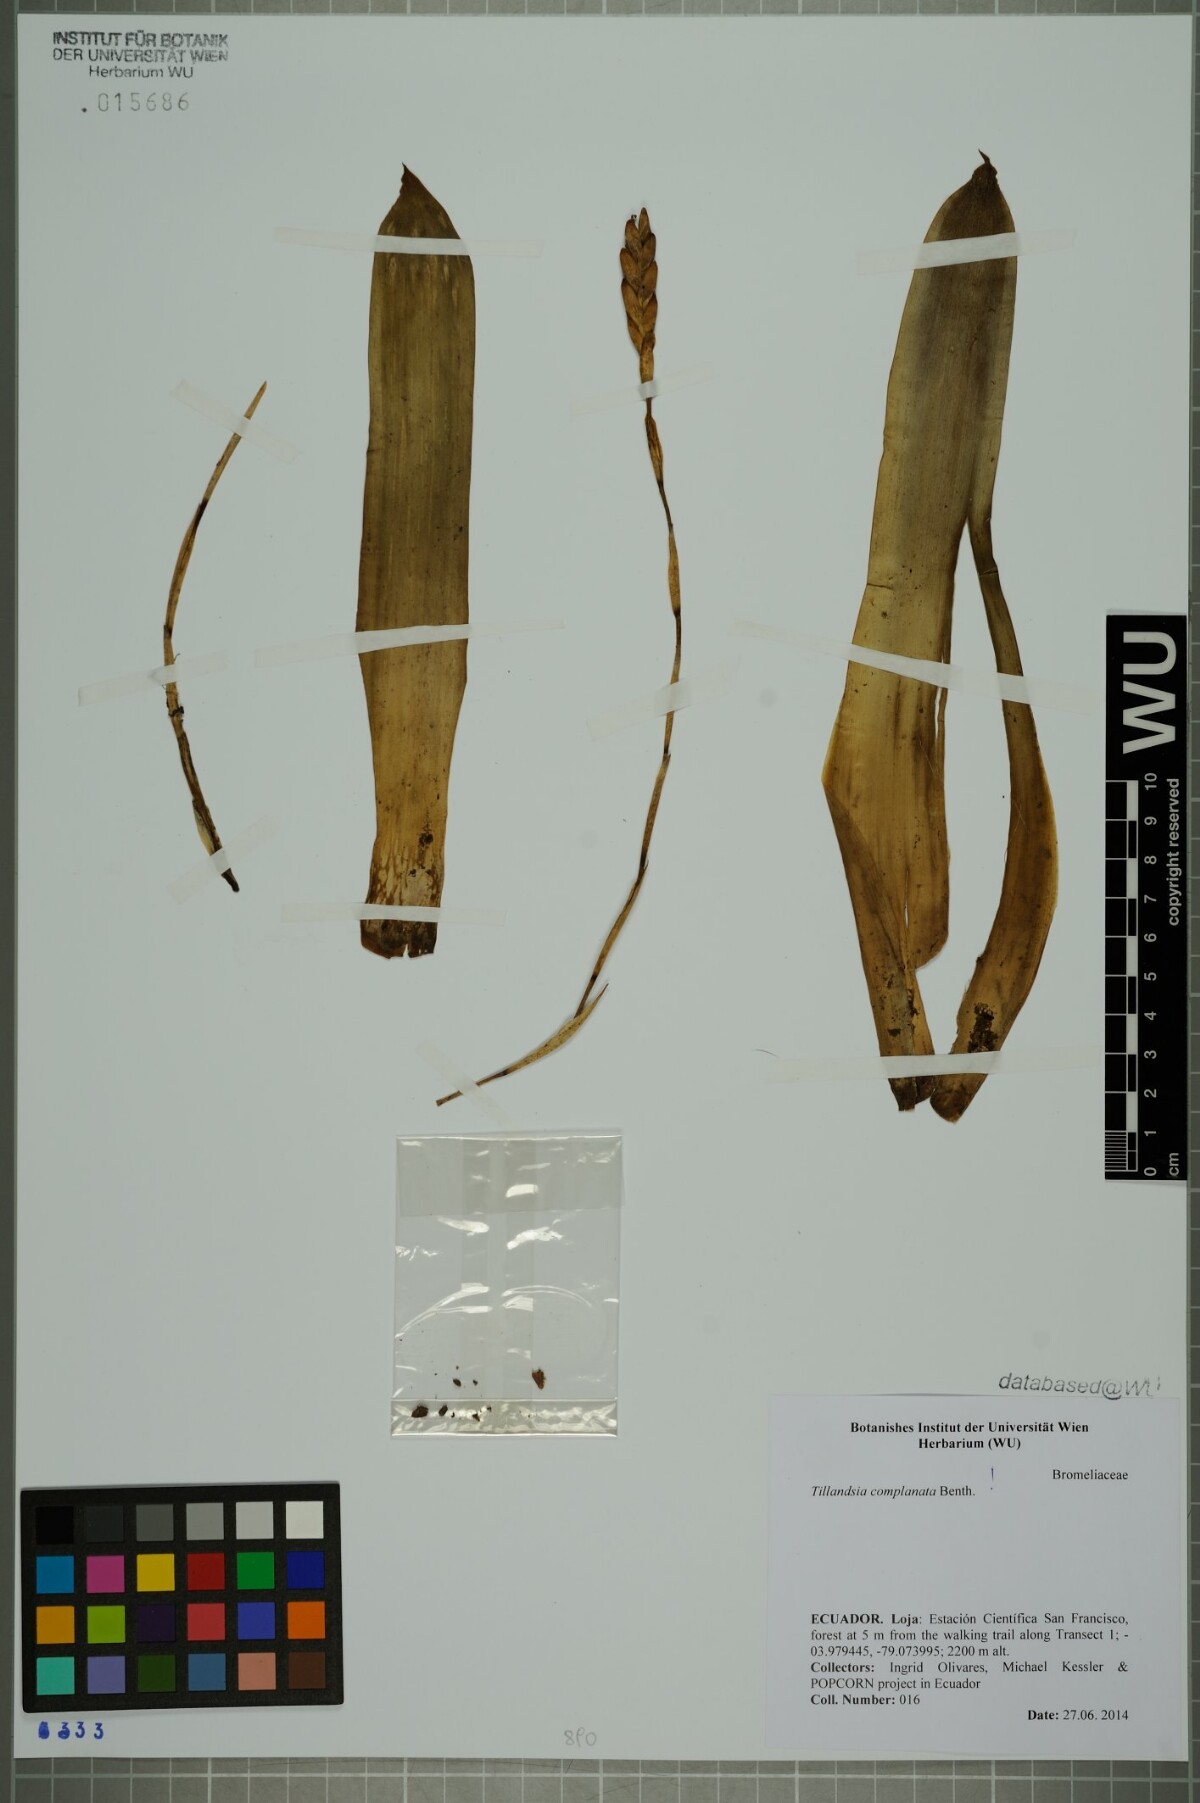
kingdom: Plantae
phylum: Tracheophyta
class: Liliopsida
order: Poales
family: Bromeliaceae
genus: Tillandsia
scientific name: Tillandsia complanata
